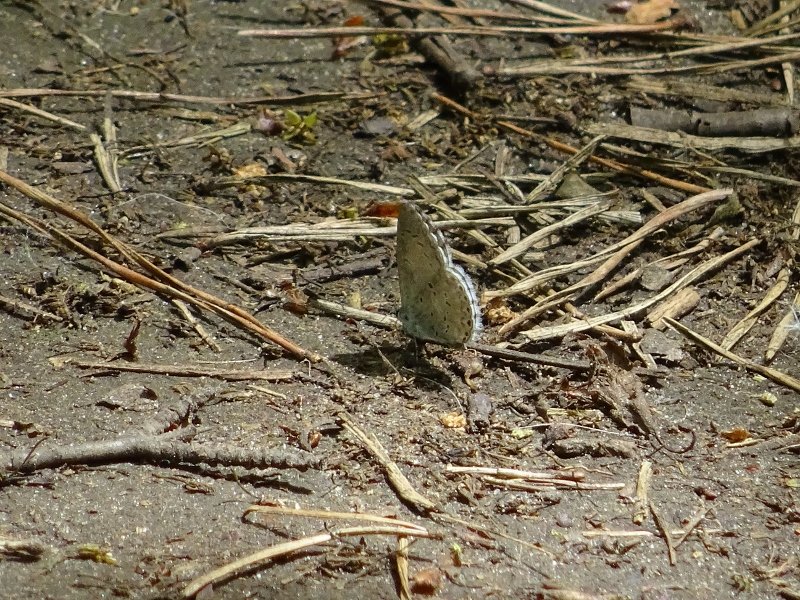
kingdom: Animalia
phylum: Arthropoda
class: Insecta
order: Lepidoptera
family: Lycaenidae
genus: Celastrina
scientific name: Celastrina
